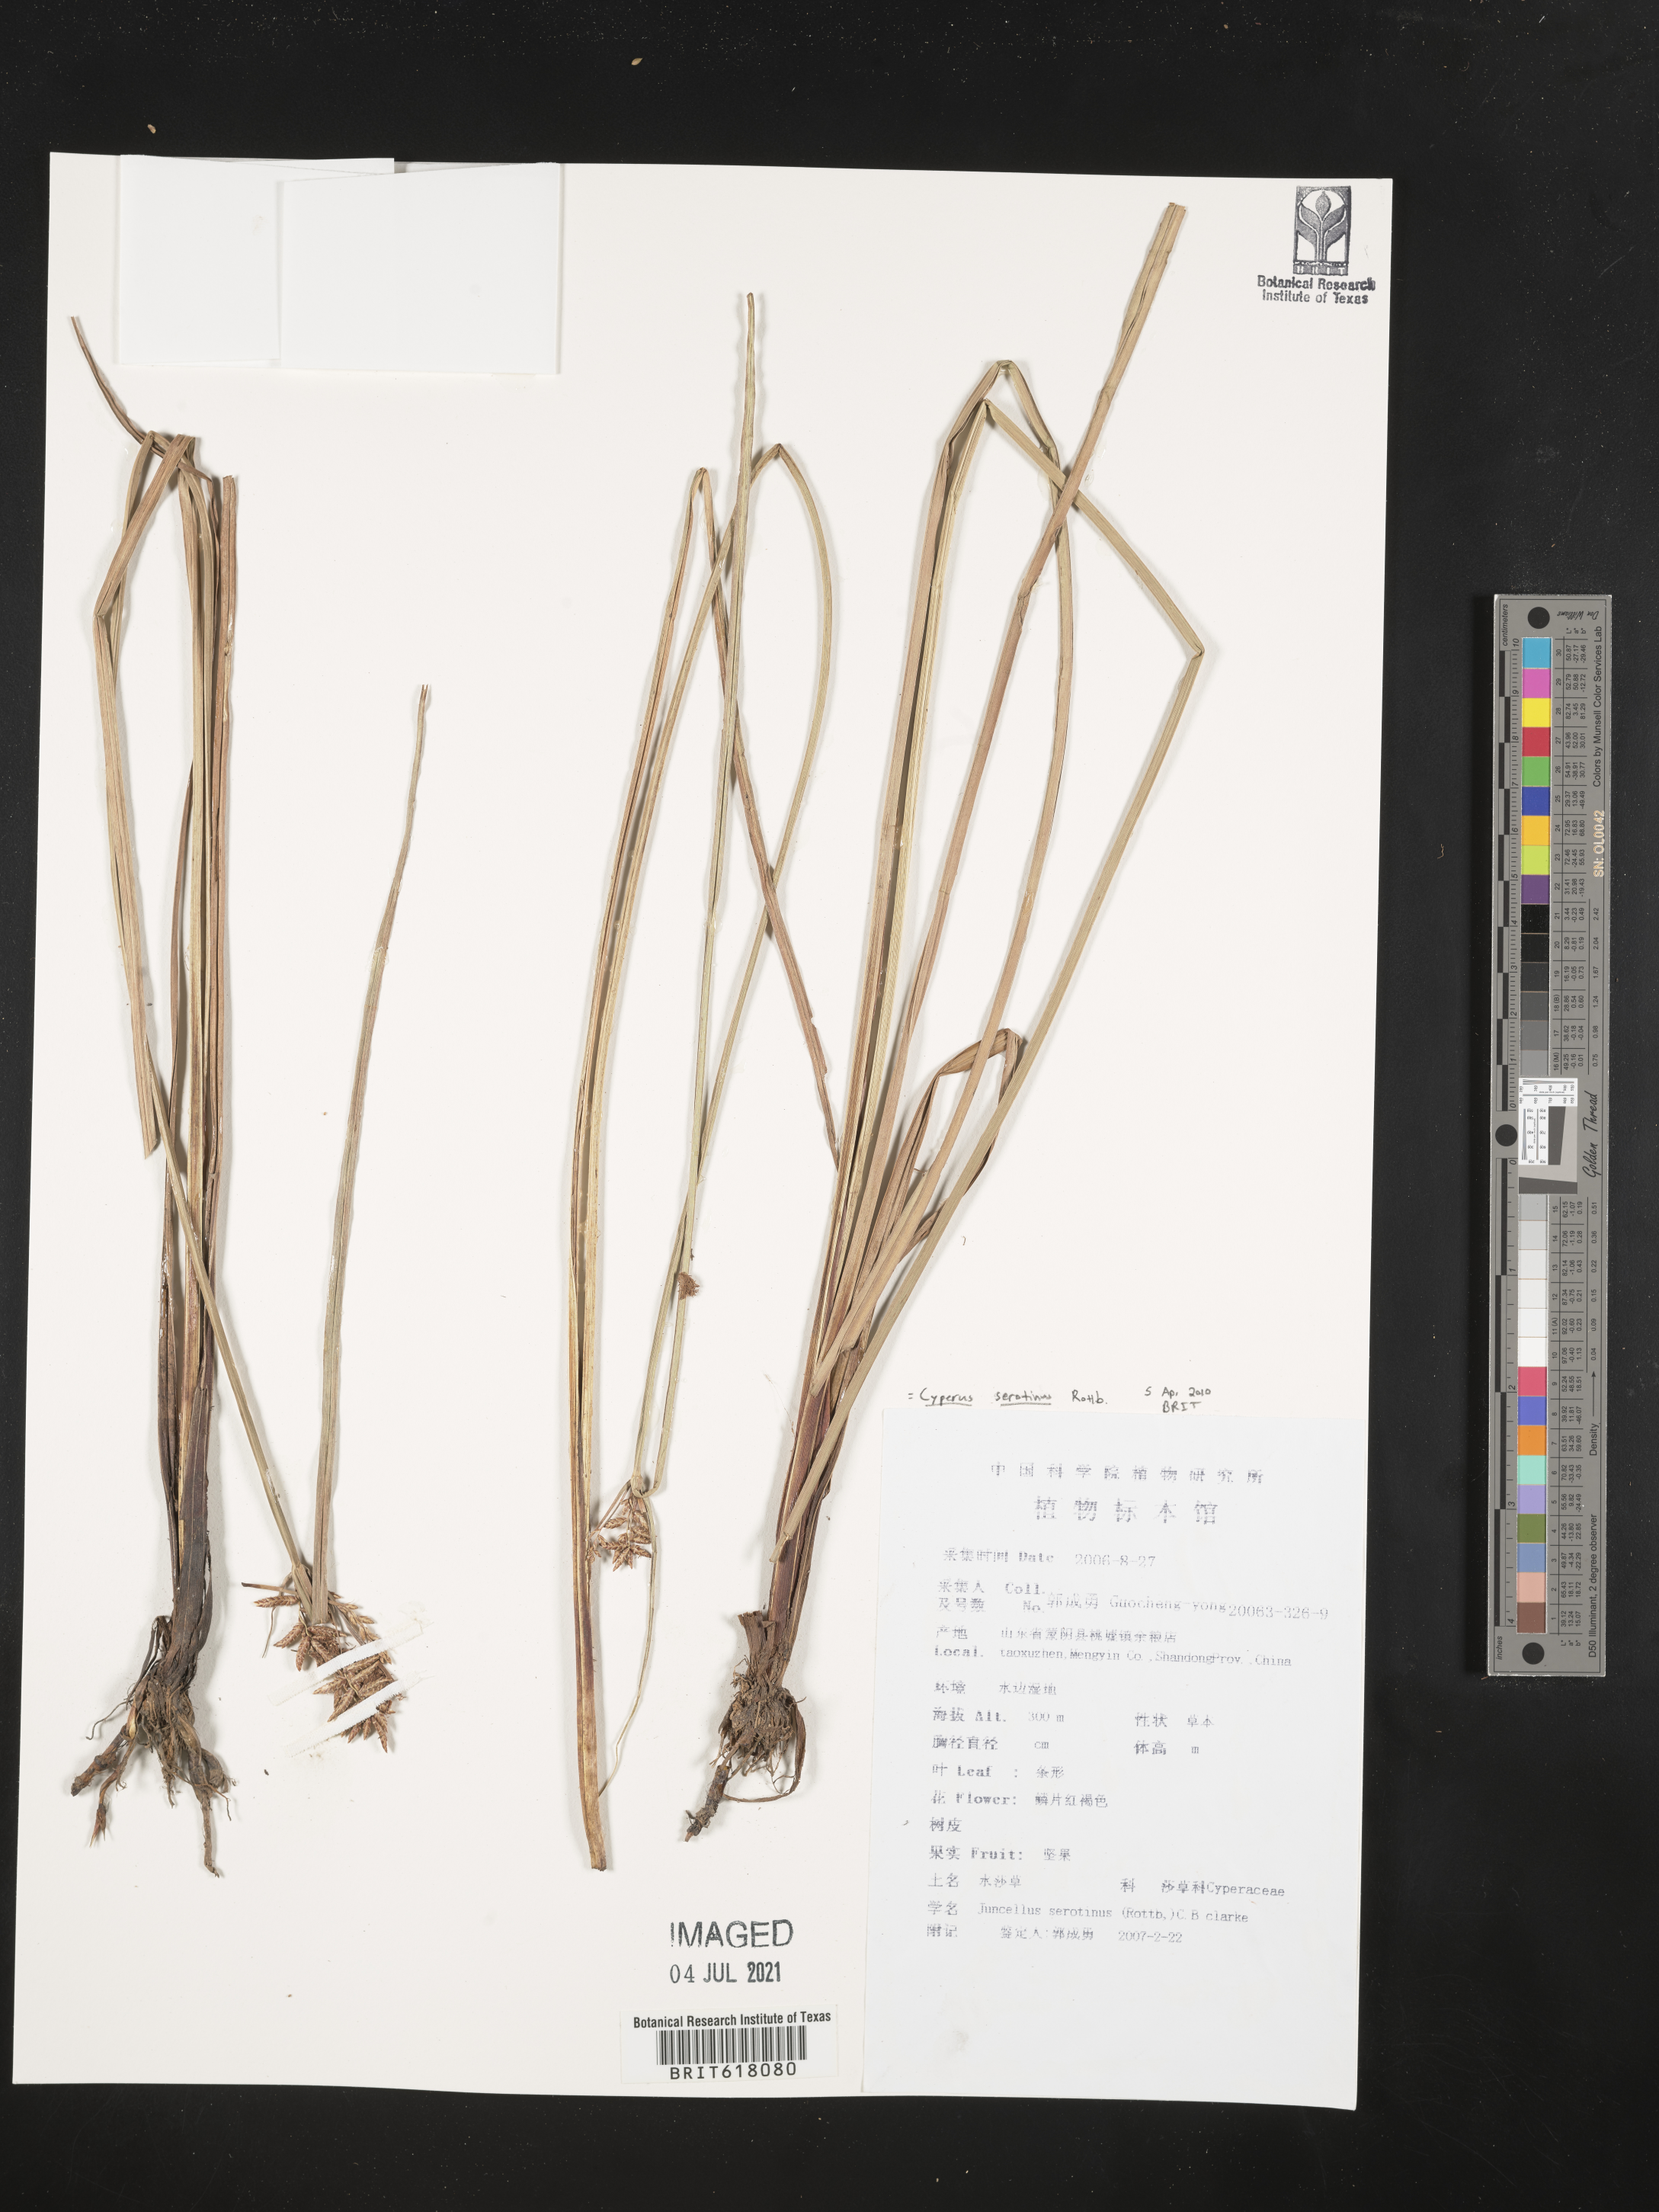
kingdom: Plantae
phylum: Tracheophyta
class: Liliopsida
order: Poales
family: Cyperaceae
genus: Cyperus
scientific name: Cyperus serotinus
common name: Tidalmarsh flatsedge
